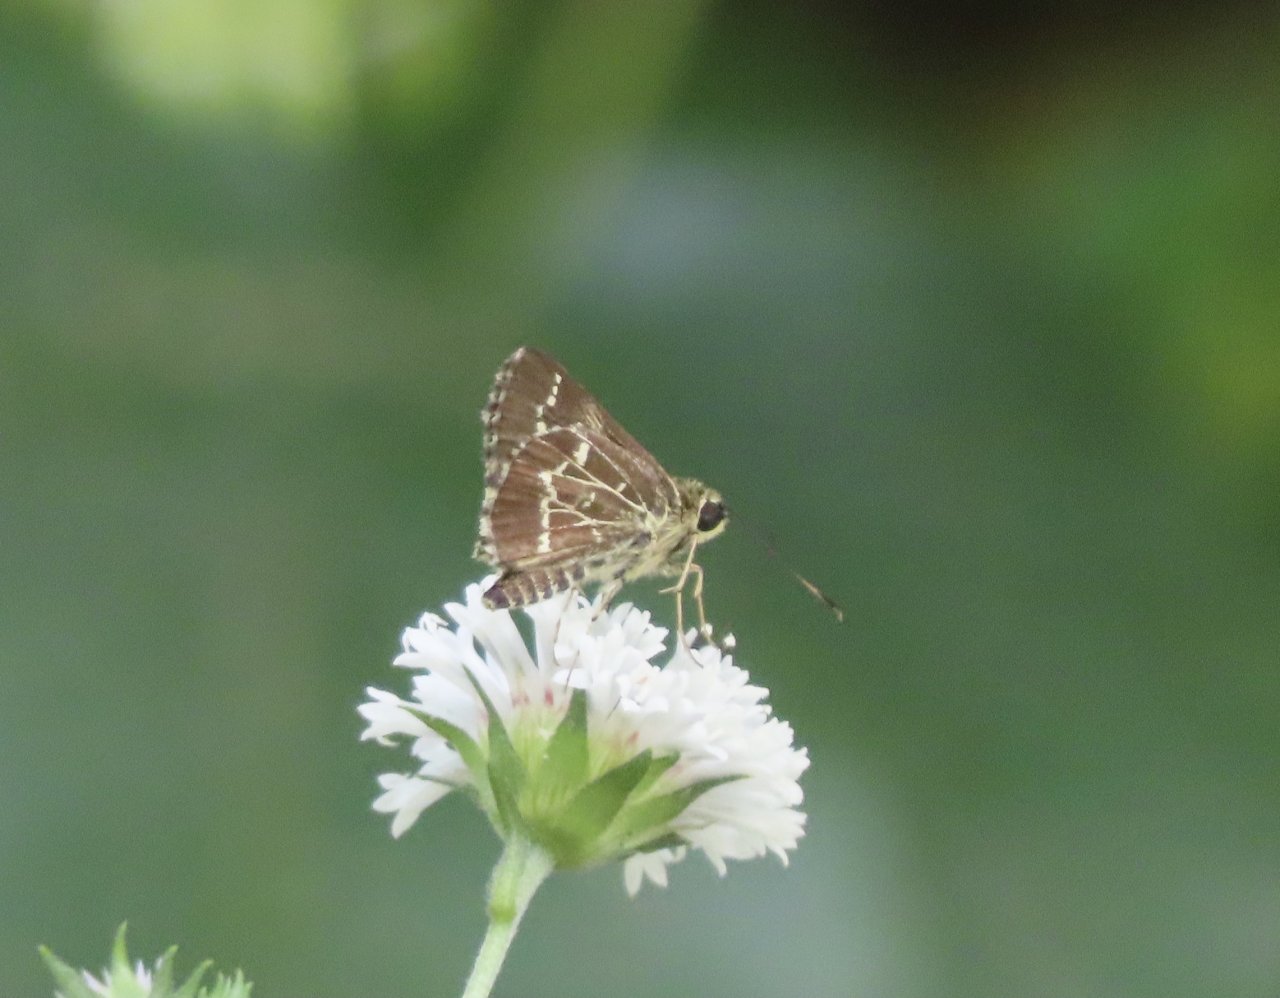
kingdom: Animalia
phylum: Arthropoda
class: Insecta
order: Lepidoptera
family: Hesperiidae
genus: Mastor
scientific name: Mastor aesculapius
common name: Lace-winged Roadside-Skipper
